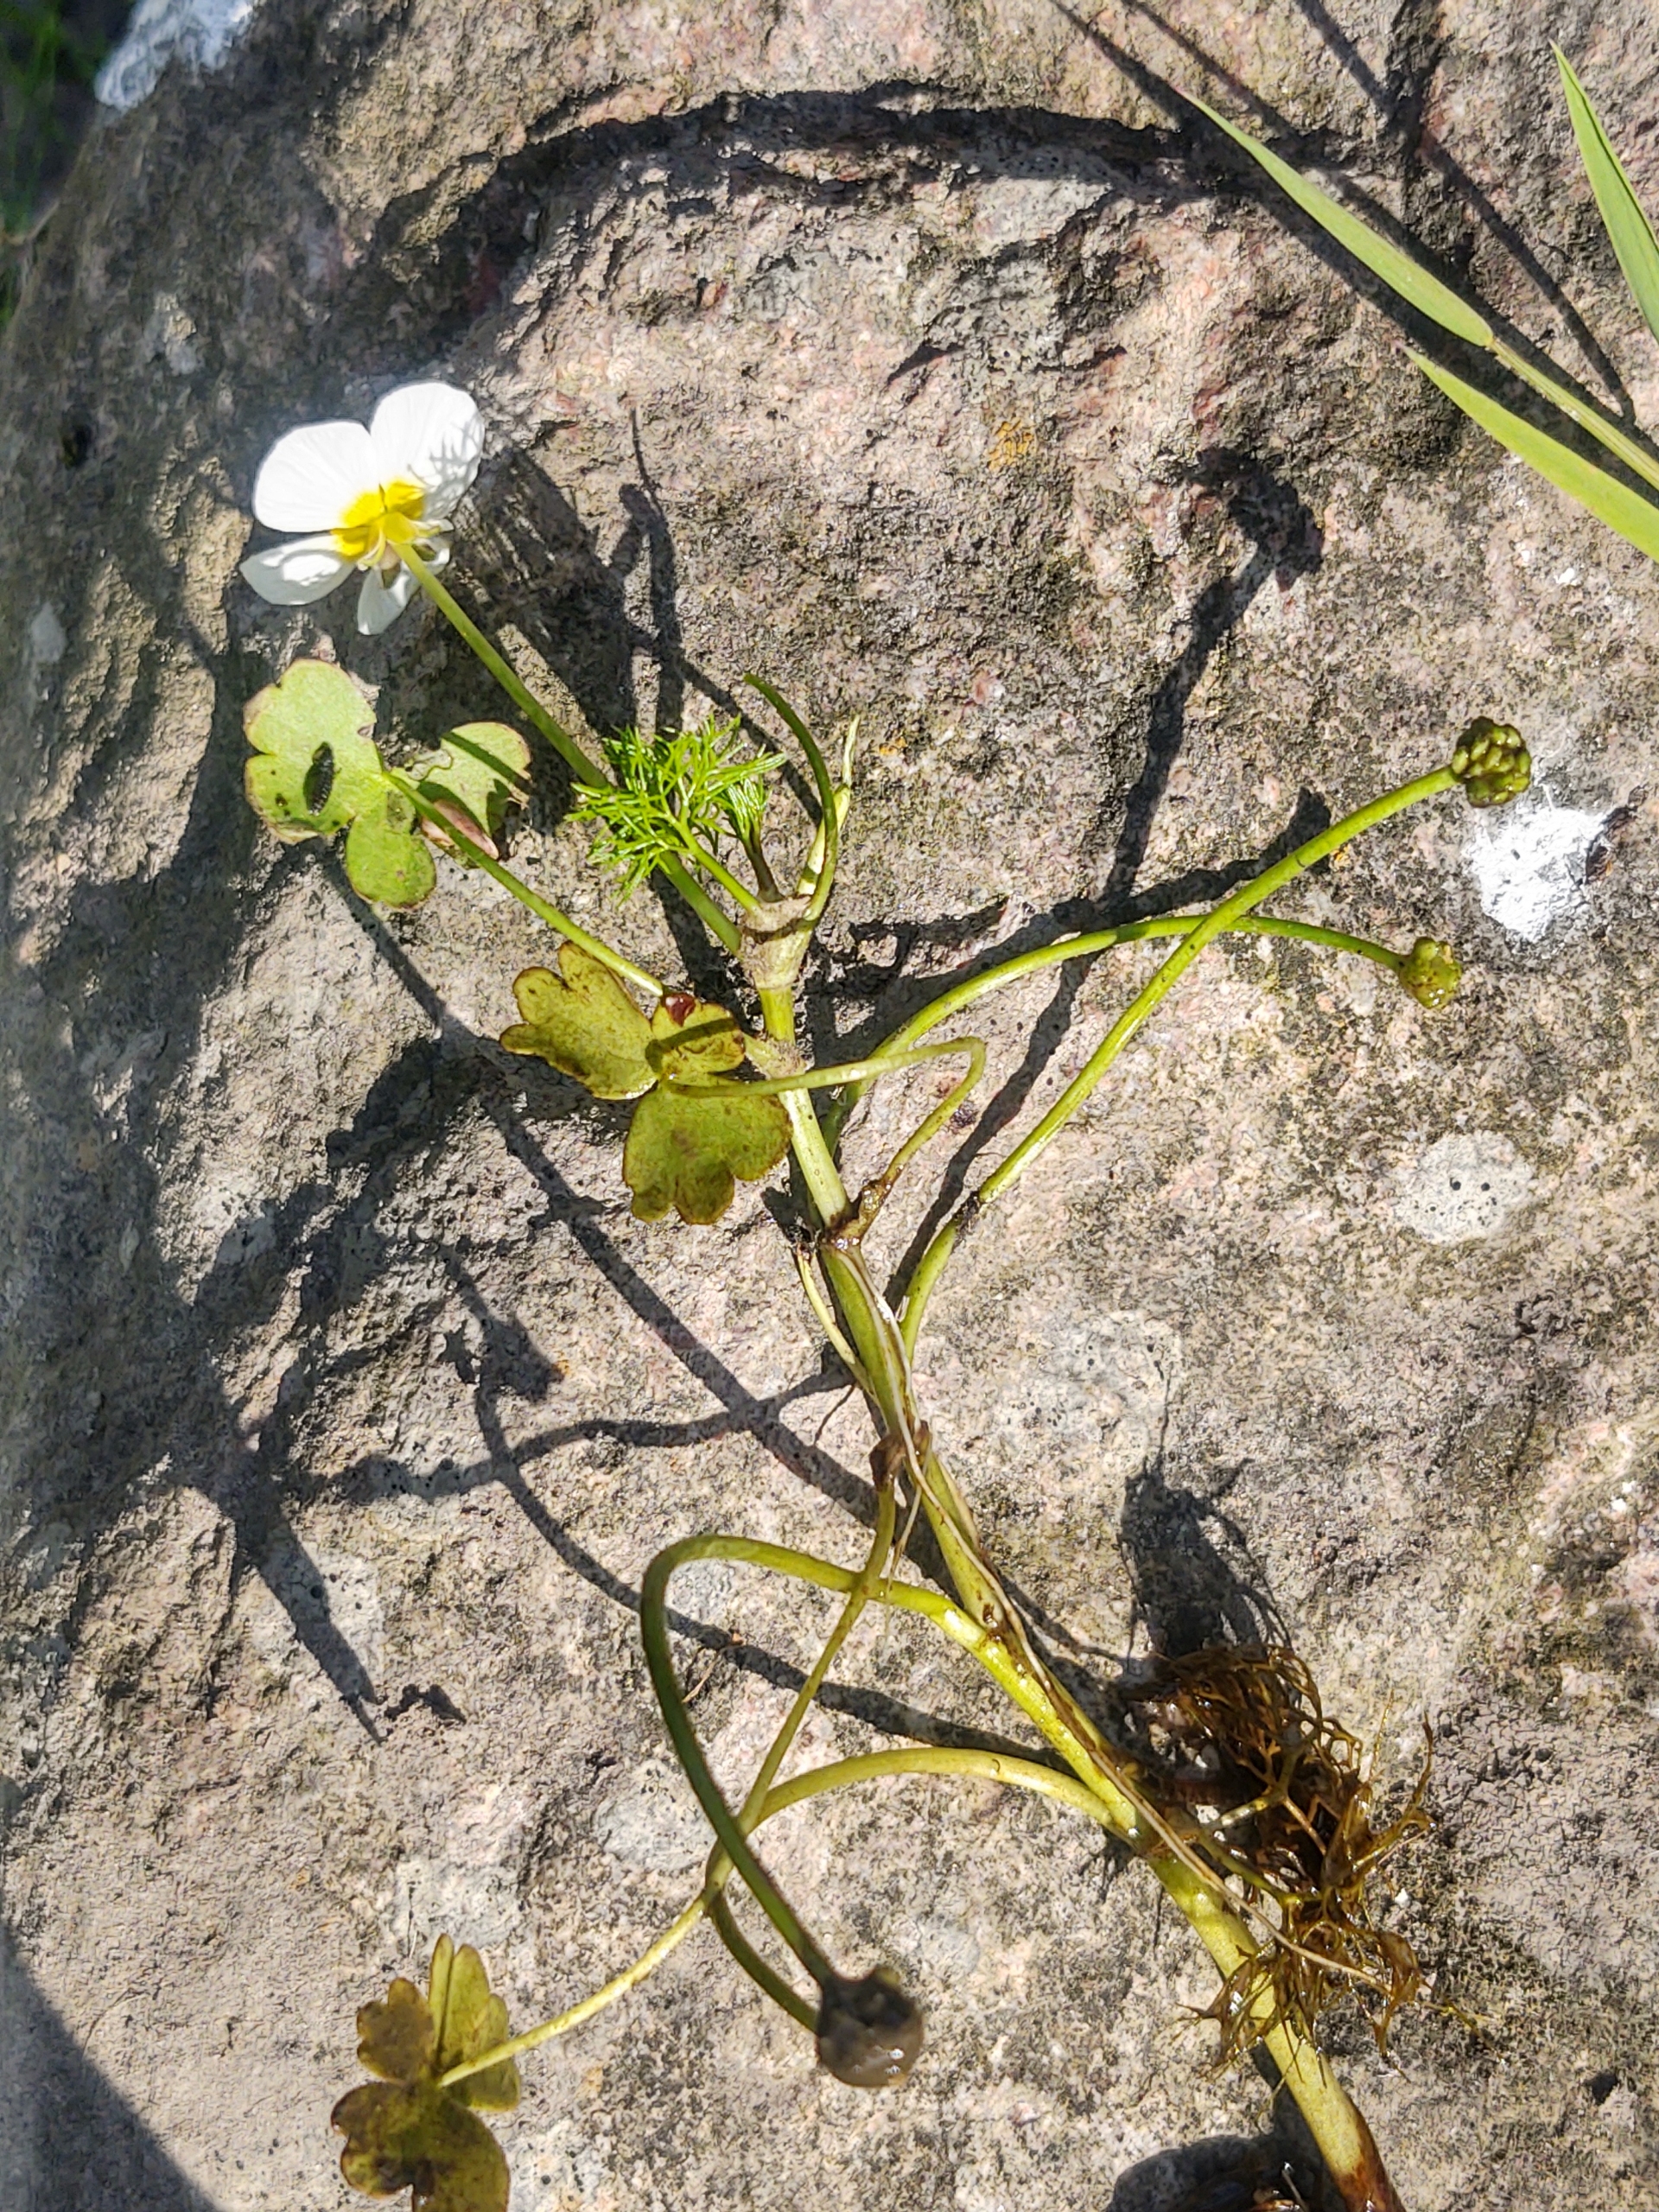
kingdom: Plantae
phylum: Tracheophyta
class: Magnoliopsida
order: Ranunculales
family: Ranunculaceae
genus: Ranunculus
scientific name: Ranunculus peltatus
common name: Storblomstret vandranunkel (underart)
